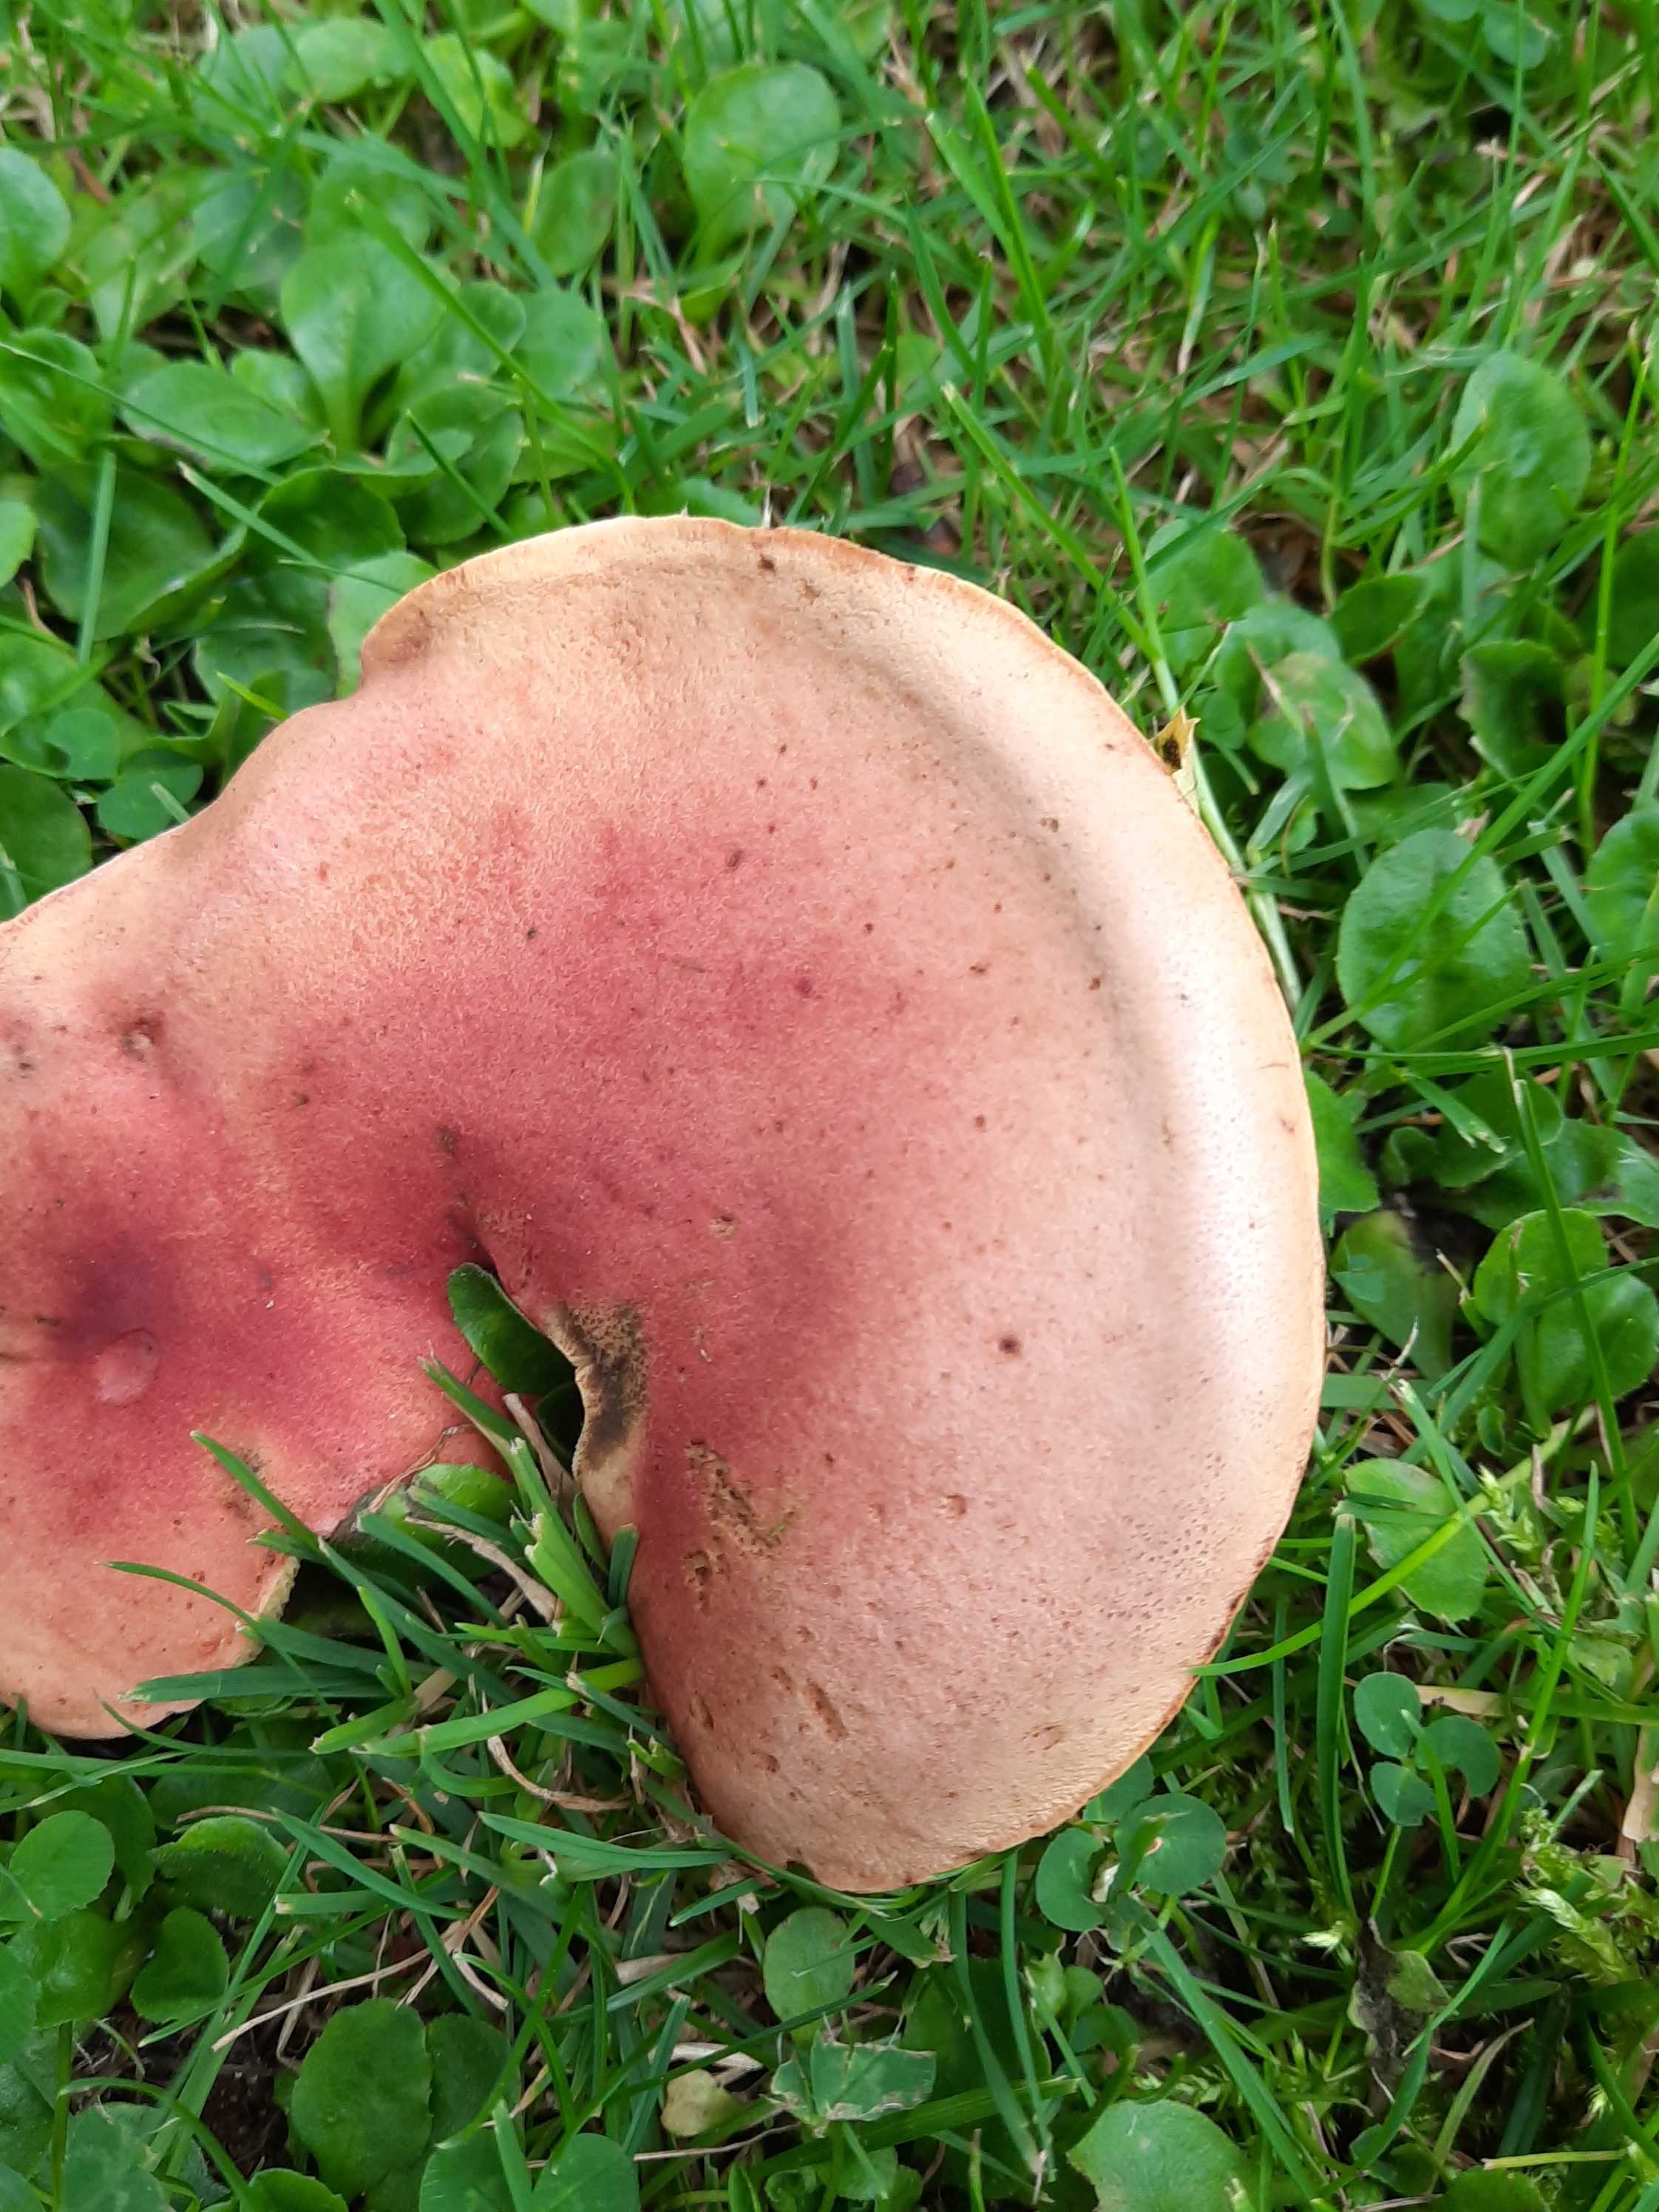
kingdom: Fungi
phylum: Basidiomycota
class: Agaricomycetes
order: Boletales
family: Boletaceae
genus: Hortiboletus
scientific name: Hortiboletus rubellus
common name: blodrød rørhat
